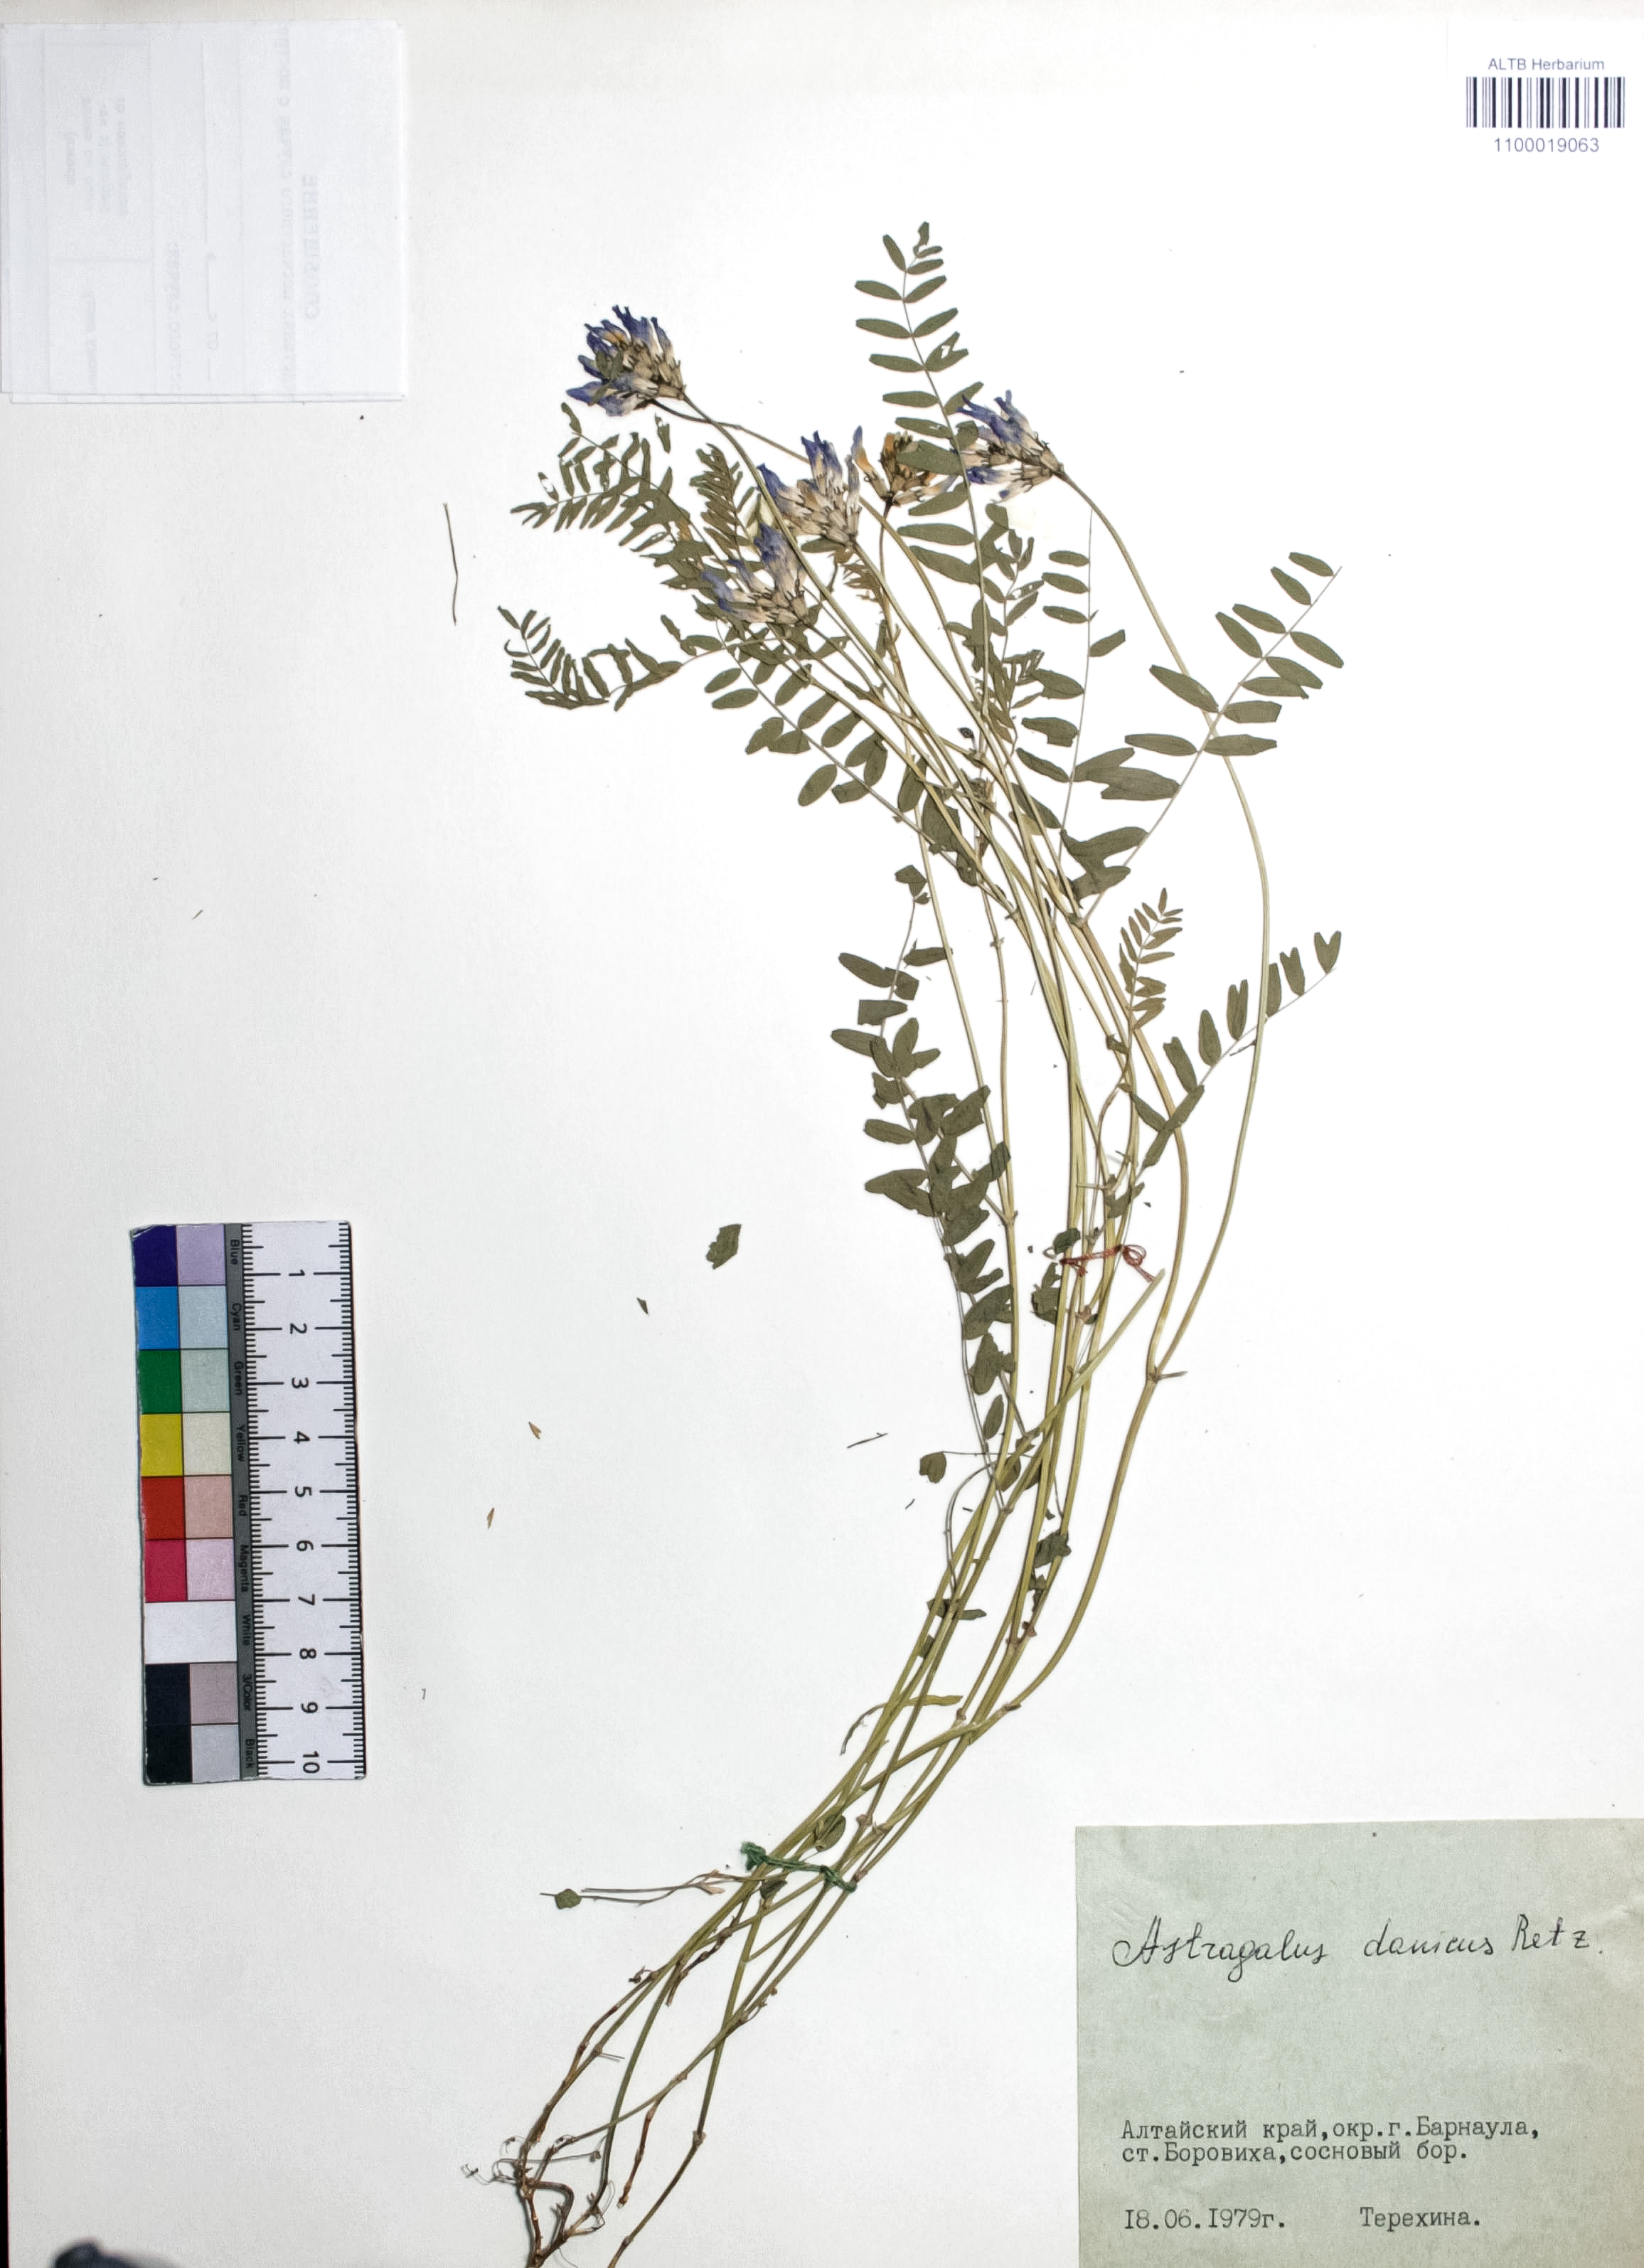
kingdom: Plantae
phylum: Tracheophyta
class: Magnoliopsida
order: Fabales
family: Fabaceae
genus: Astragalus
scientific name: Astragalus danicus
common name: Purple milk-vetch
